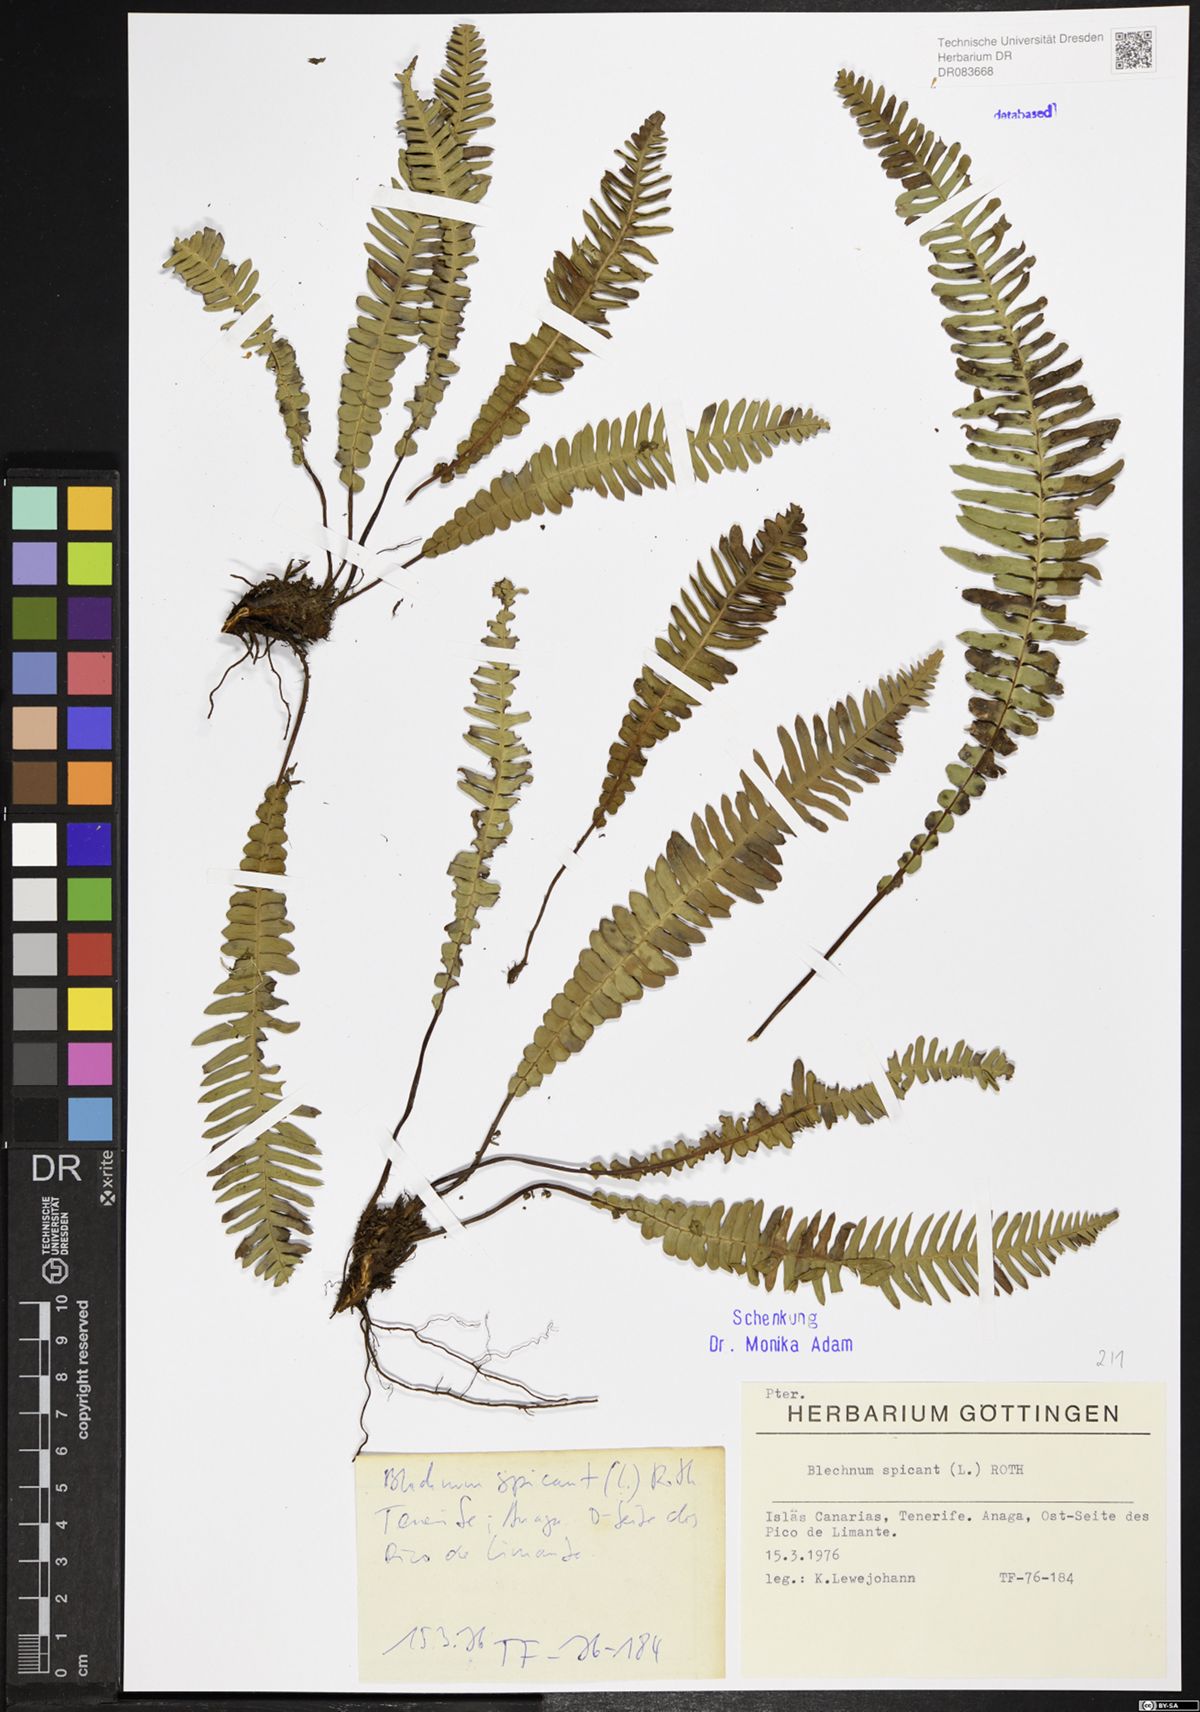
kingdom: Plantae
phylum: Tracheophyta
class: Polypodiopsida
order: Polypodiales
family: Blechnaceae
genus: Struthiopteris
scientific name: Struthiopteris spicant
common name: Deer fern
